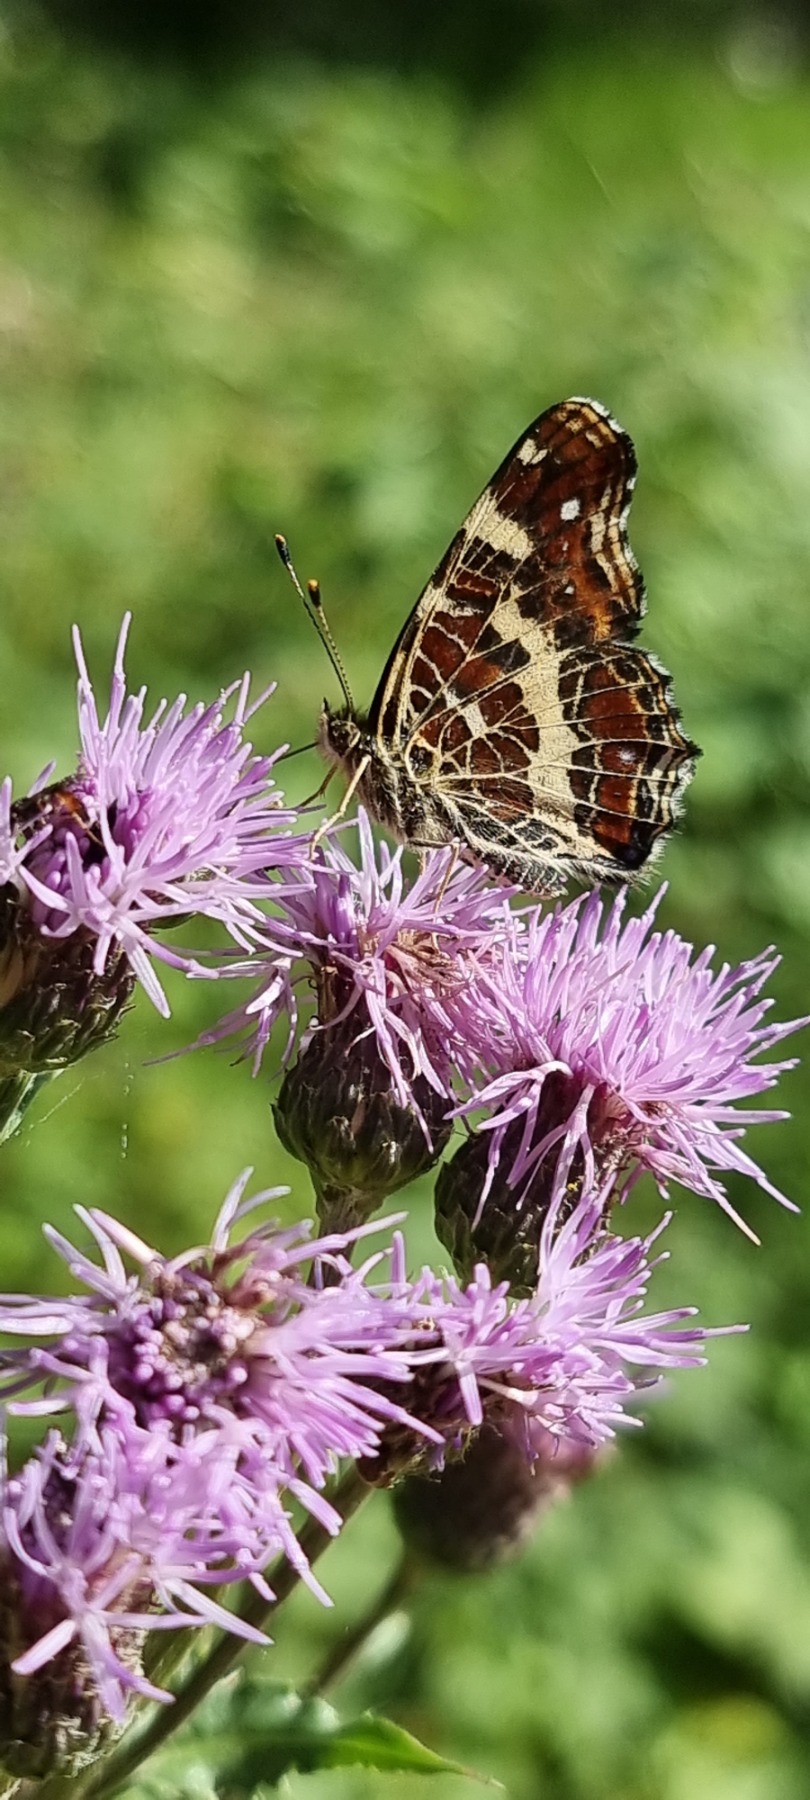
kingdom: Animalia
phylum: Arthropoda
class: Insecta
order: Lepidoptera
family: Nymphalidae
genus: Araschnia
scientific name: Araschnia levana
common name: Nældesommerfugl
